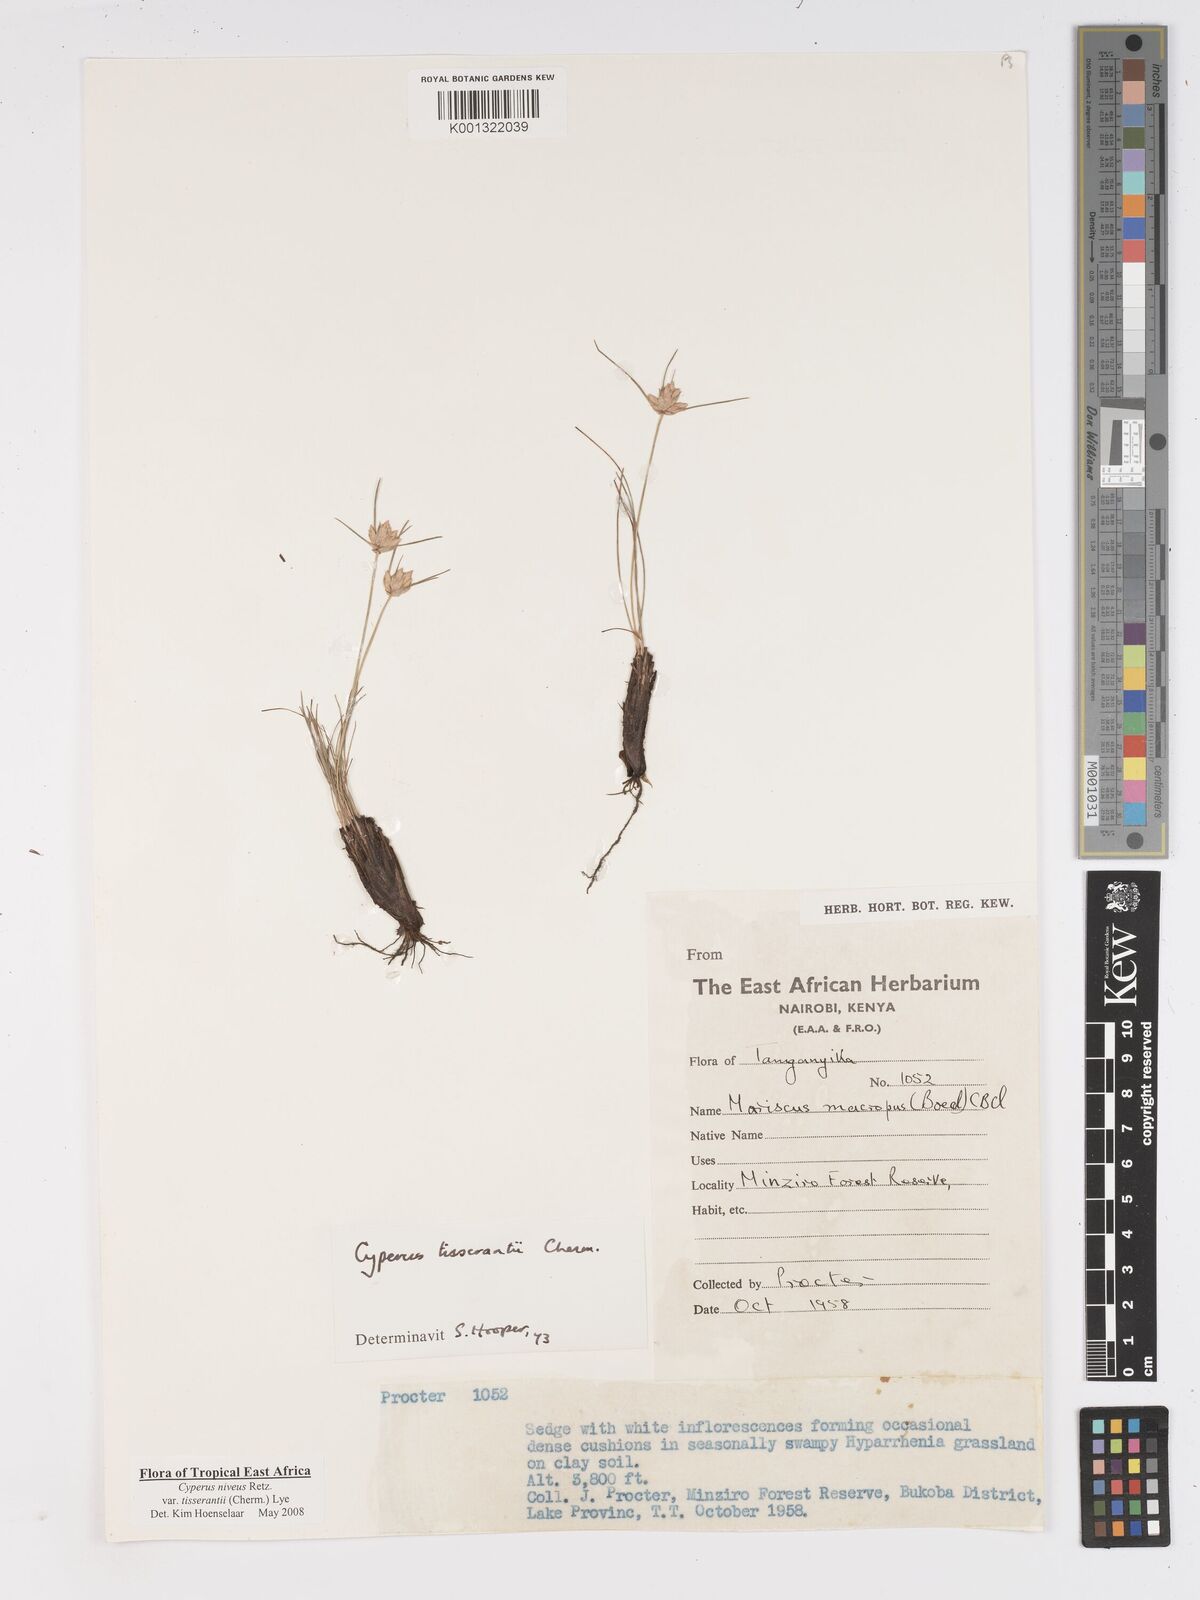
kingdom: Plantae
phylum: Tracheophyta
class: Liliopsida
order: Poales
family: Cyperaceae
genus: Cyperus
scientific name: Cyperus niveus
